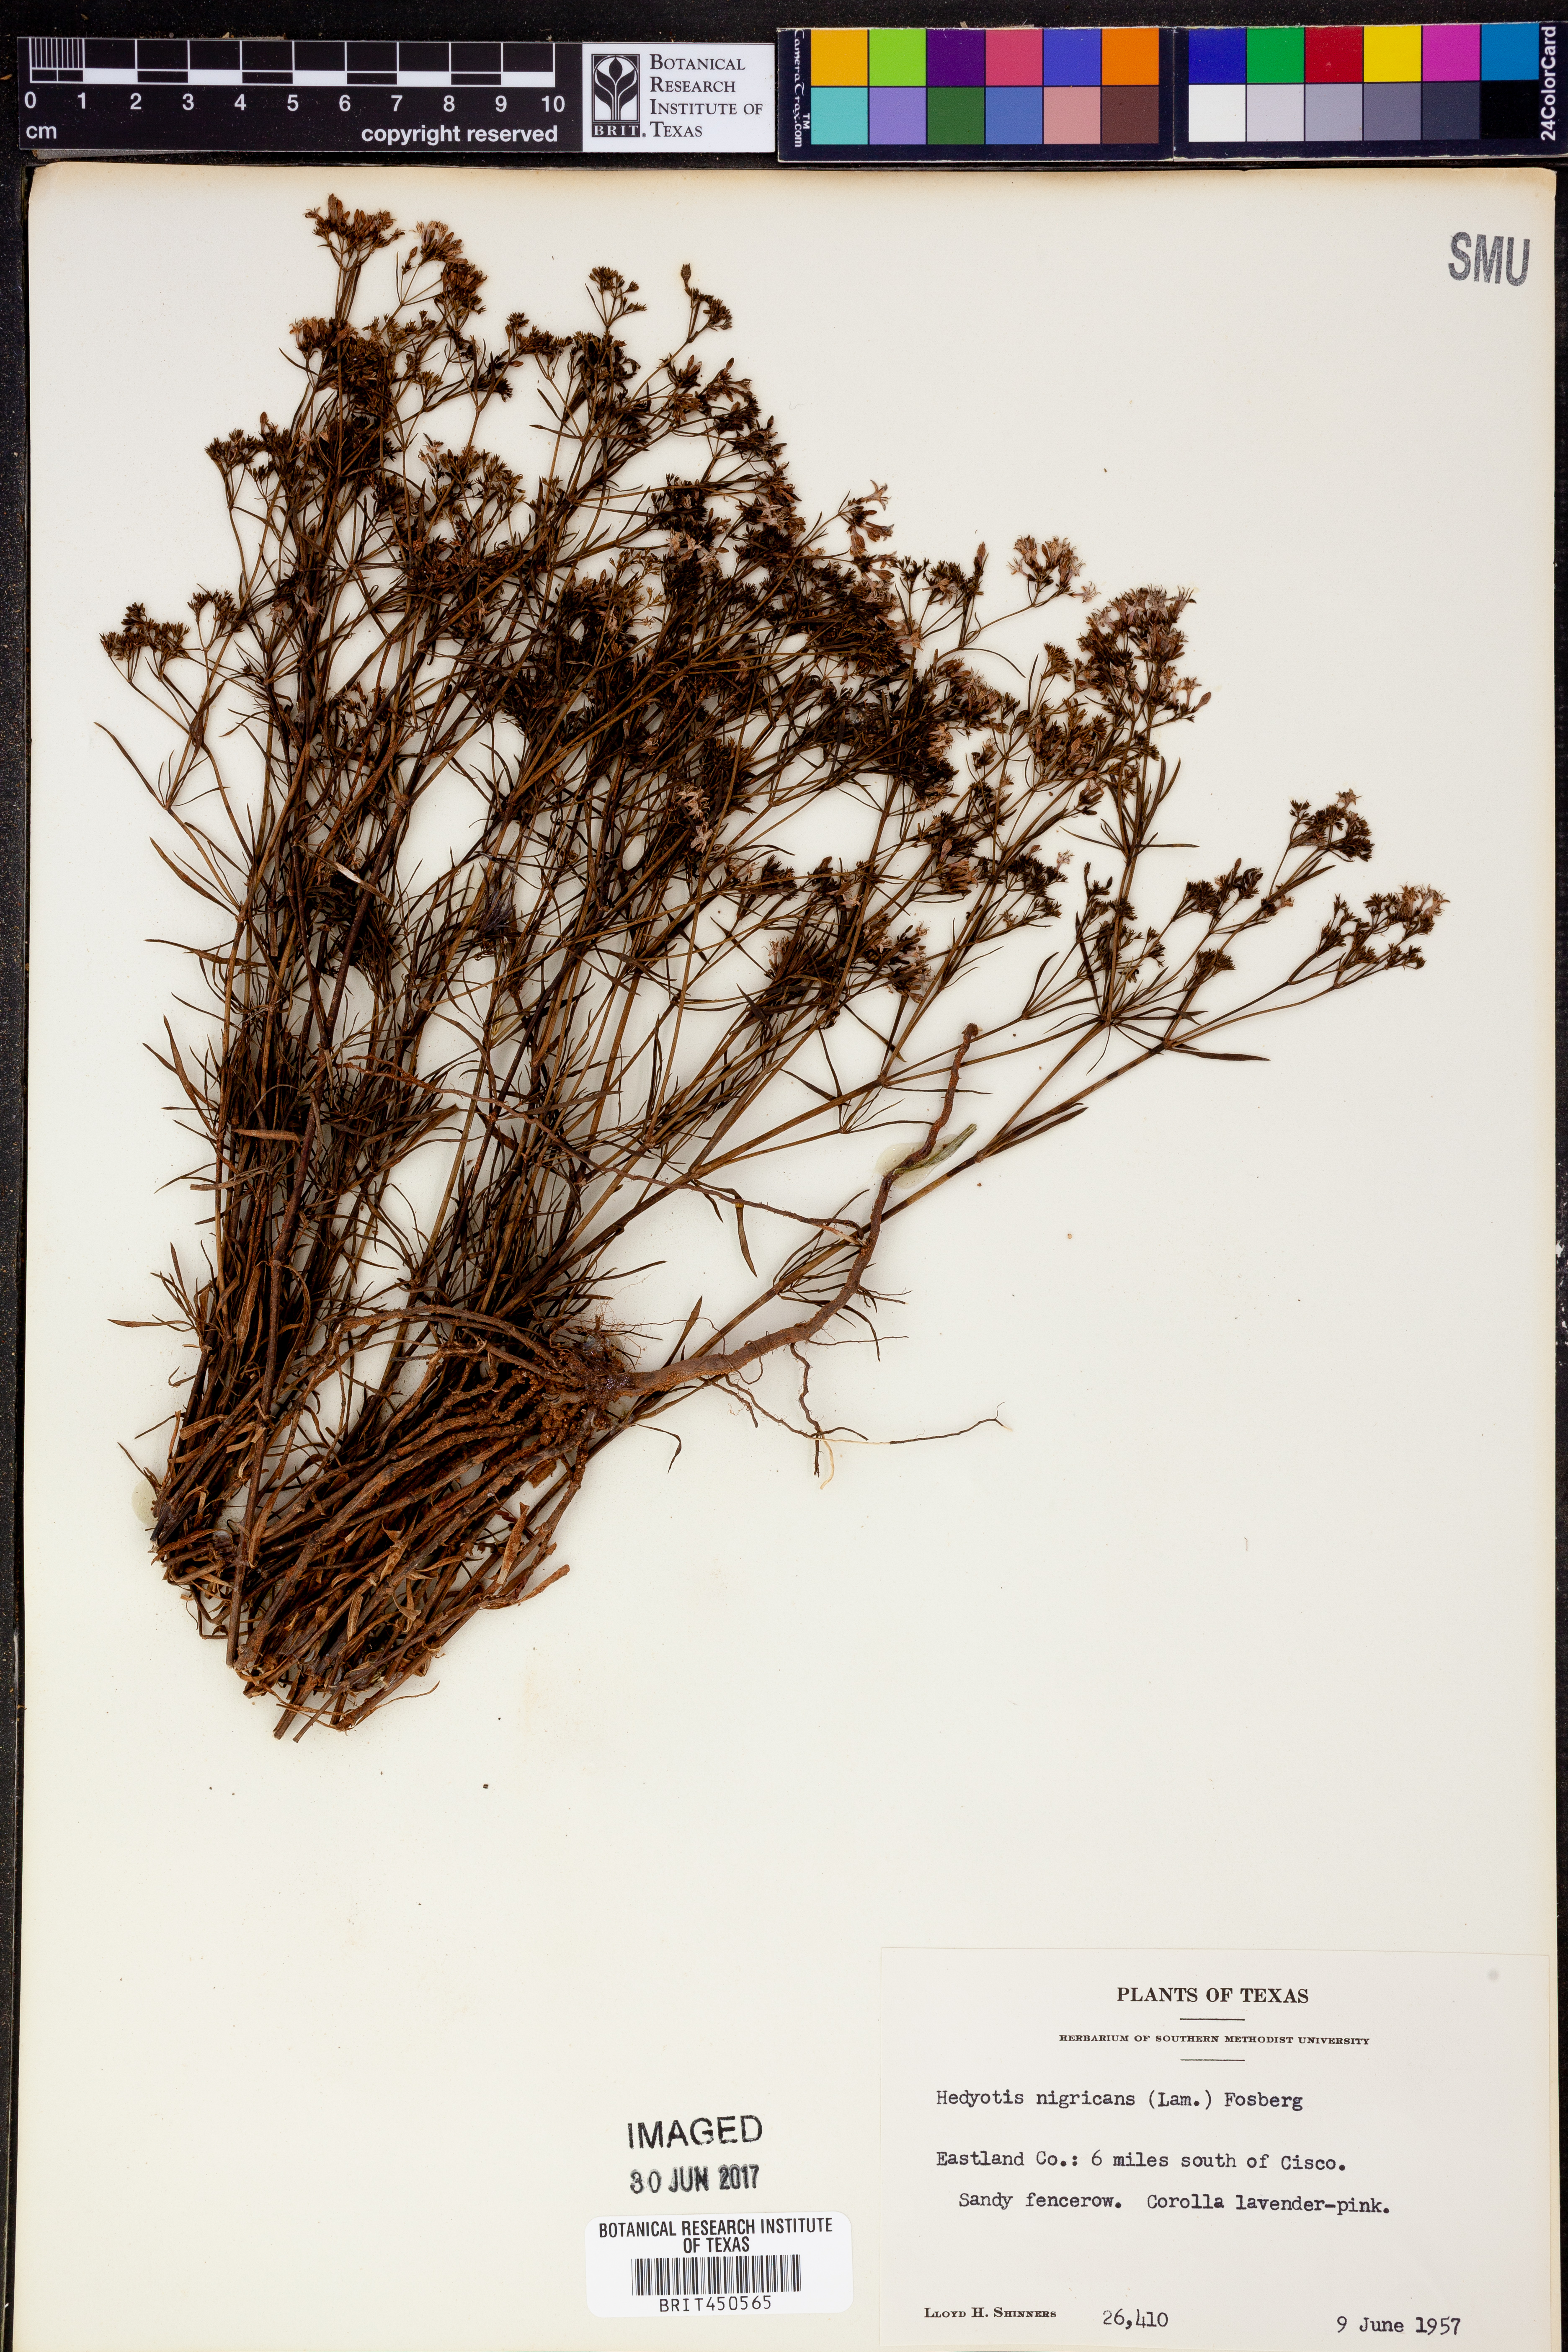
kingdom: Plantae
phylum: Tracheophyta
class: Magnoliopsida
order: Gentianales
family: Rubiaceae
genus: Stenaria
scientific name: Stenaria nigricans
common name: Diamondflowers
